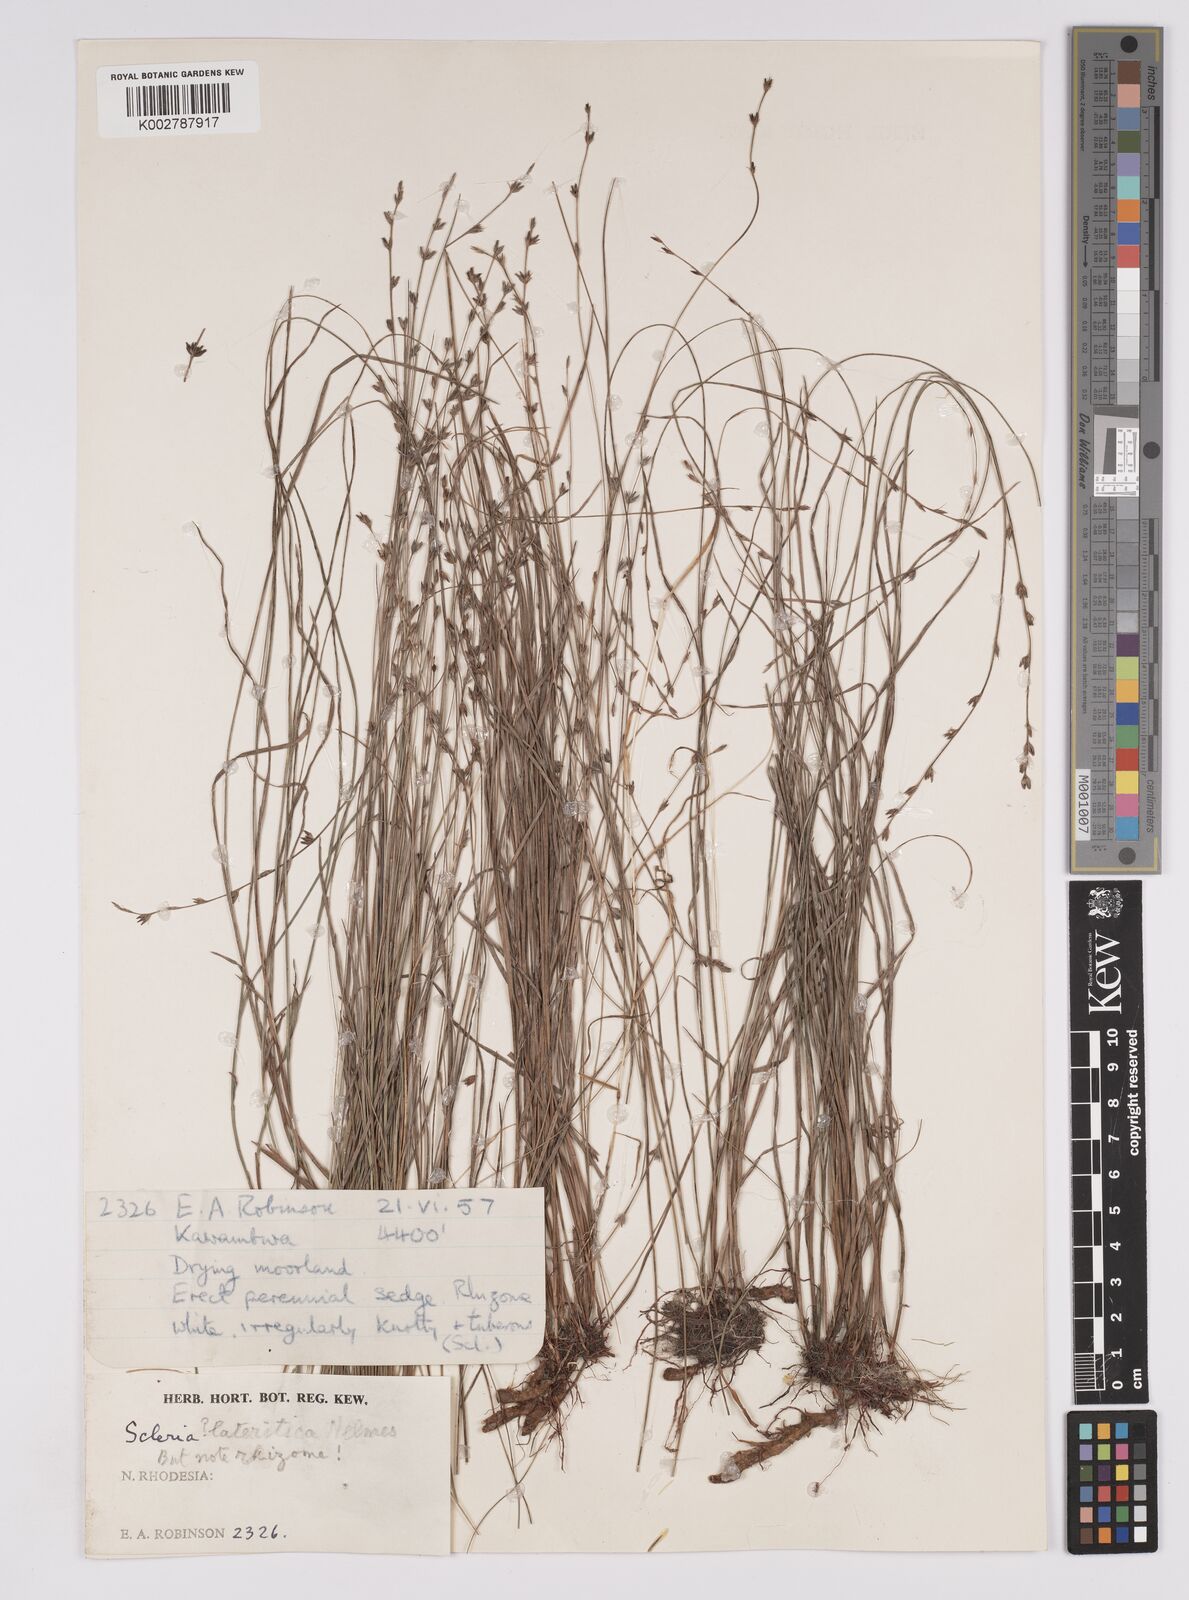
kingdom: Plantae
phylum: Tracheophyta
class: Liliopsida
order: Poales
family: Cyperaceae
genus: Scleria
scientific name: Scleria lateritica
